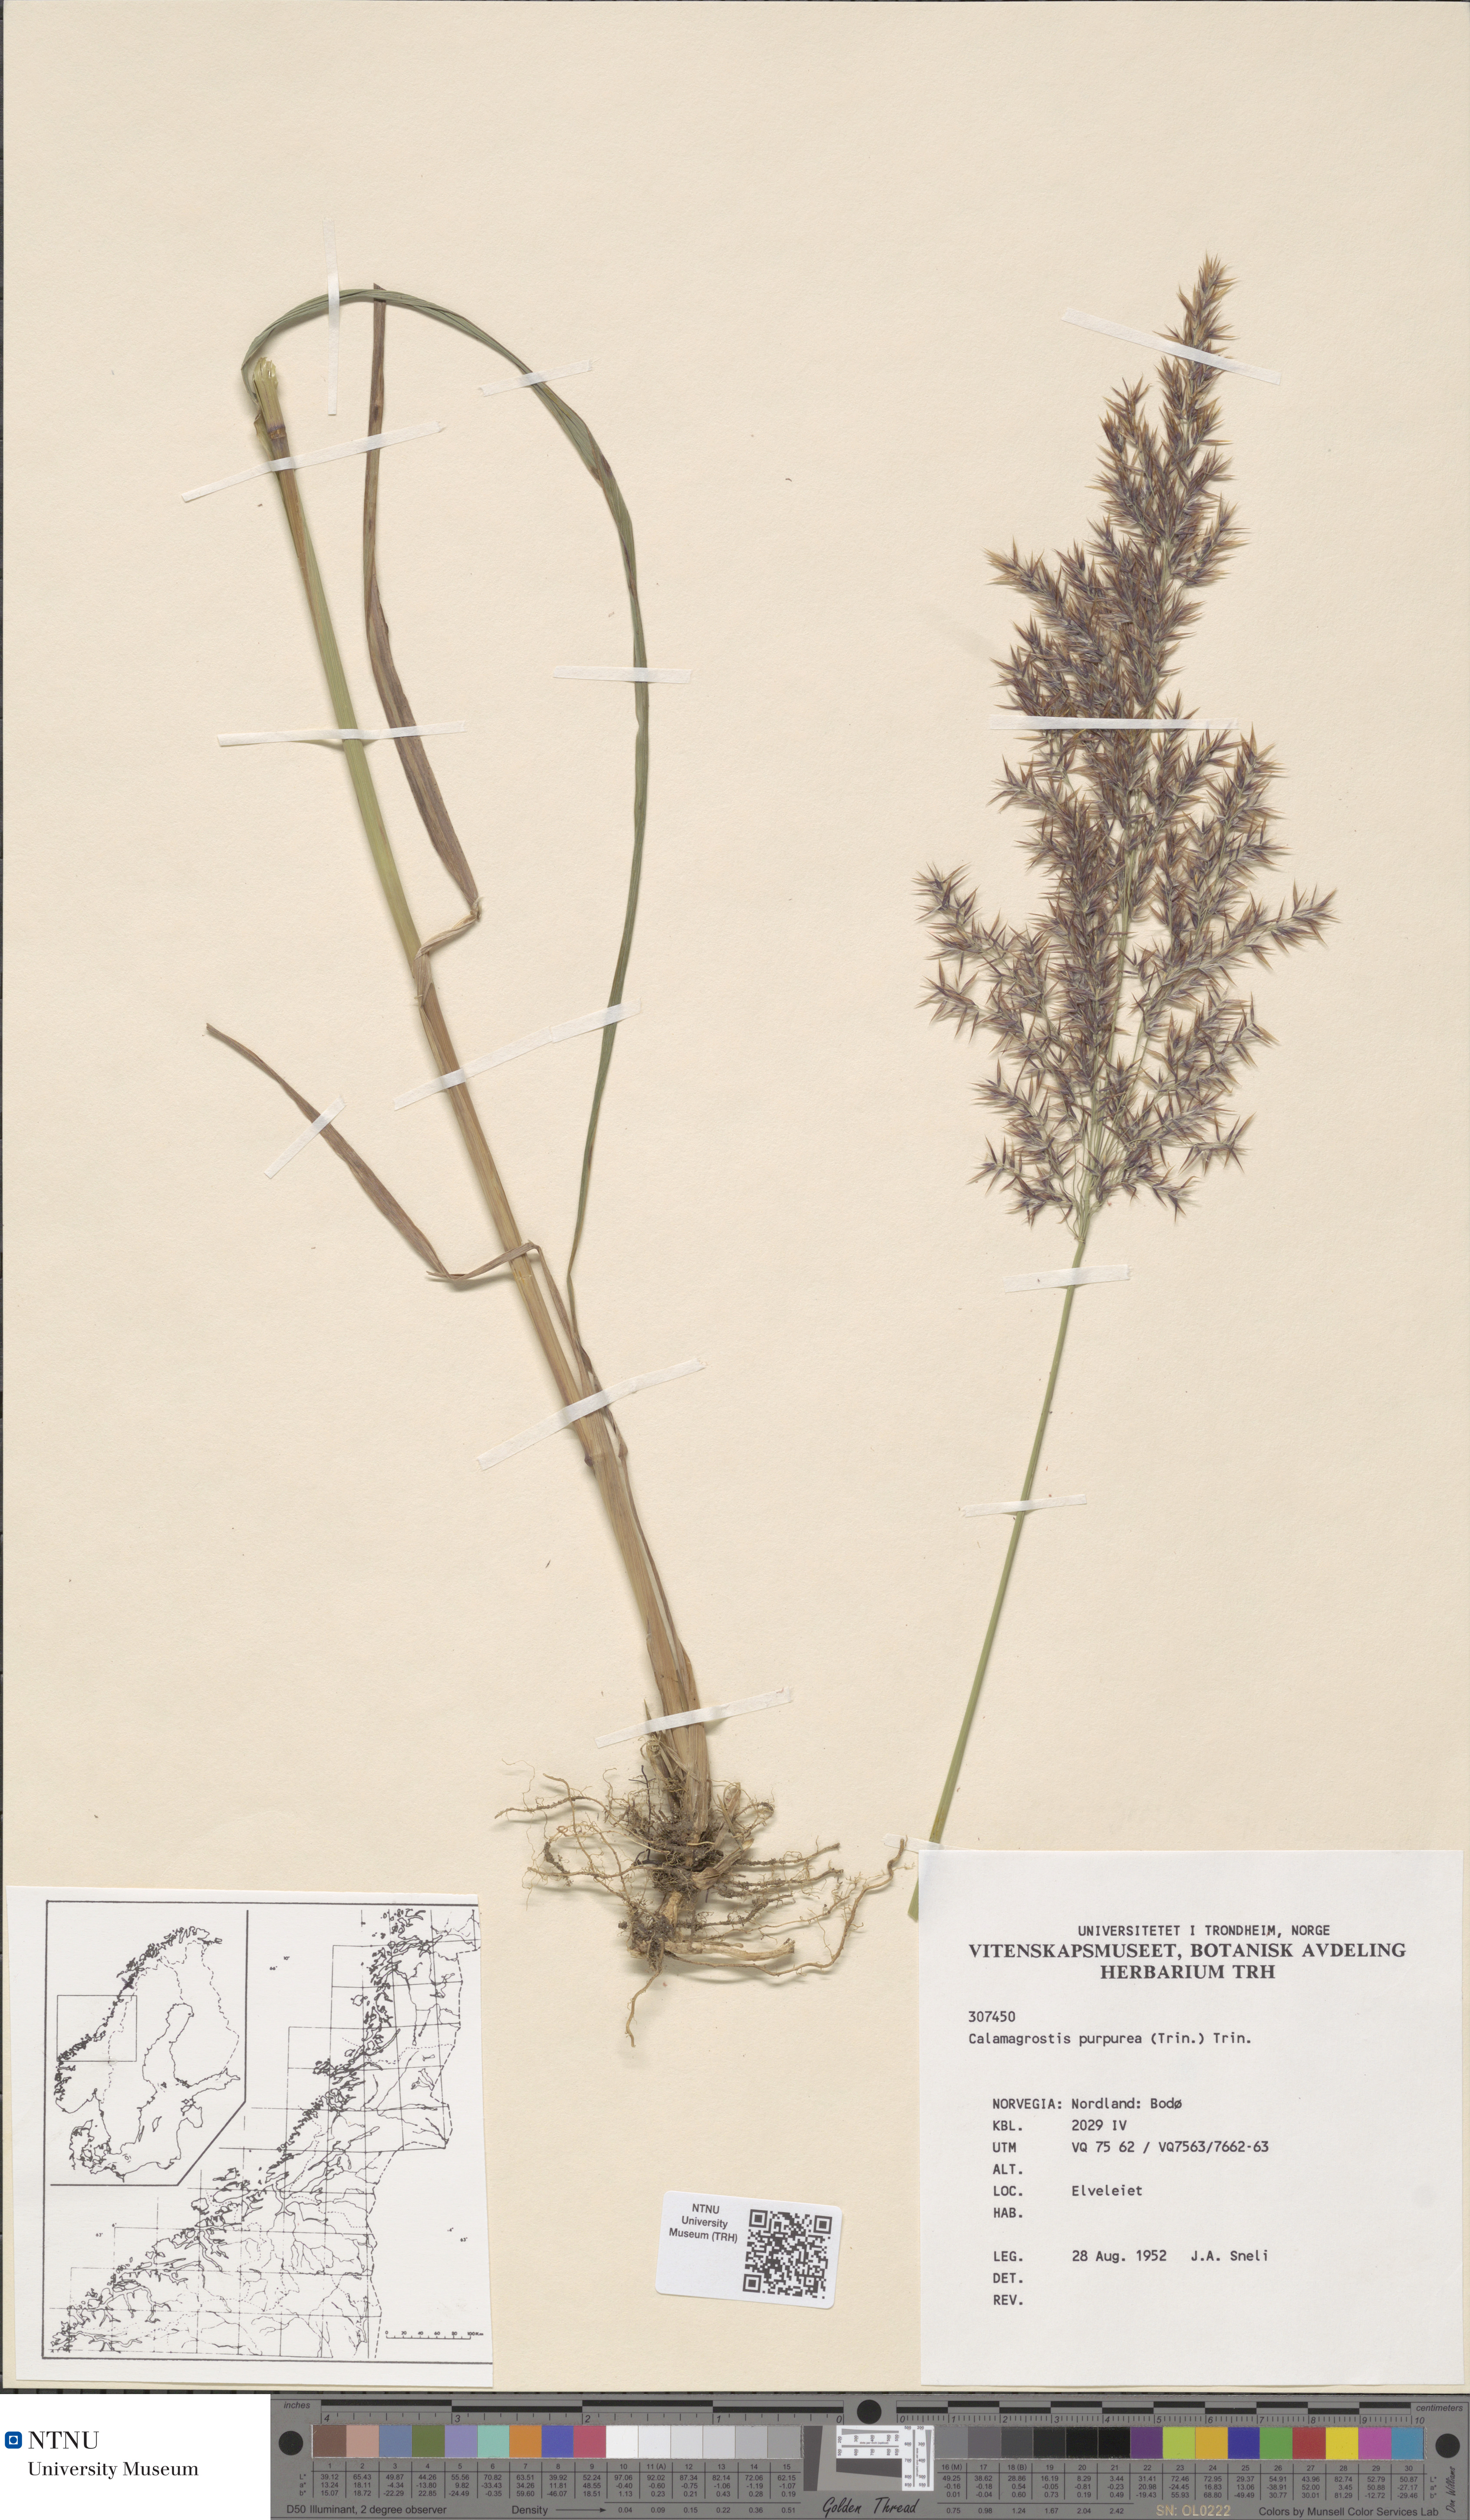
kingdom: Plantae
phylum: Tracheophyta
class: Liliopsida
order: Poales
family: Poaceae
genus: Calamagrostis
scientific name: Calamagrostis purpurea
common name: Scandinavian small-reed
